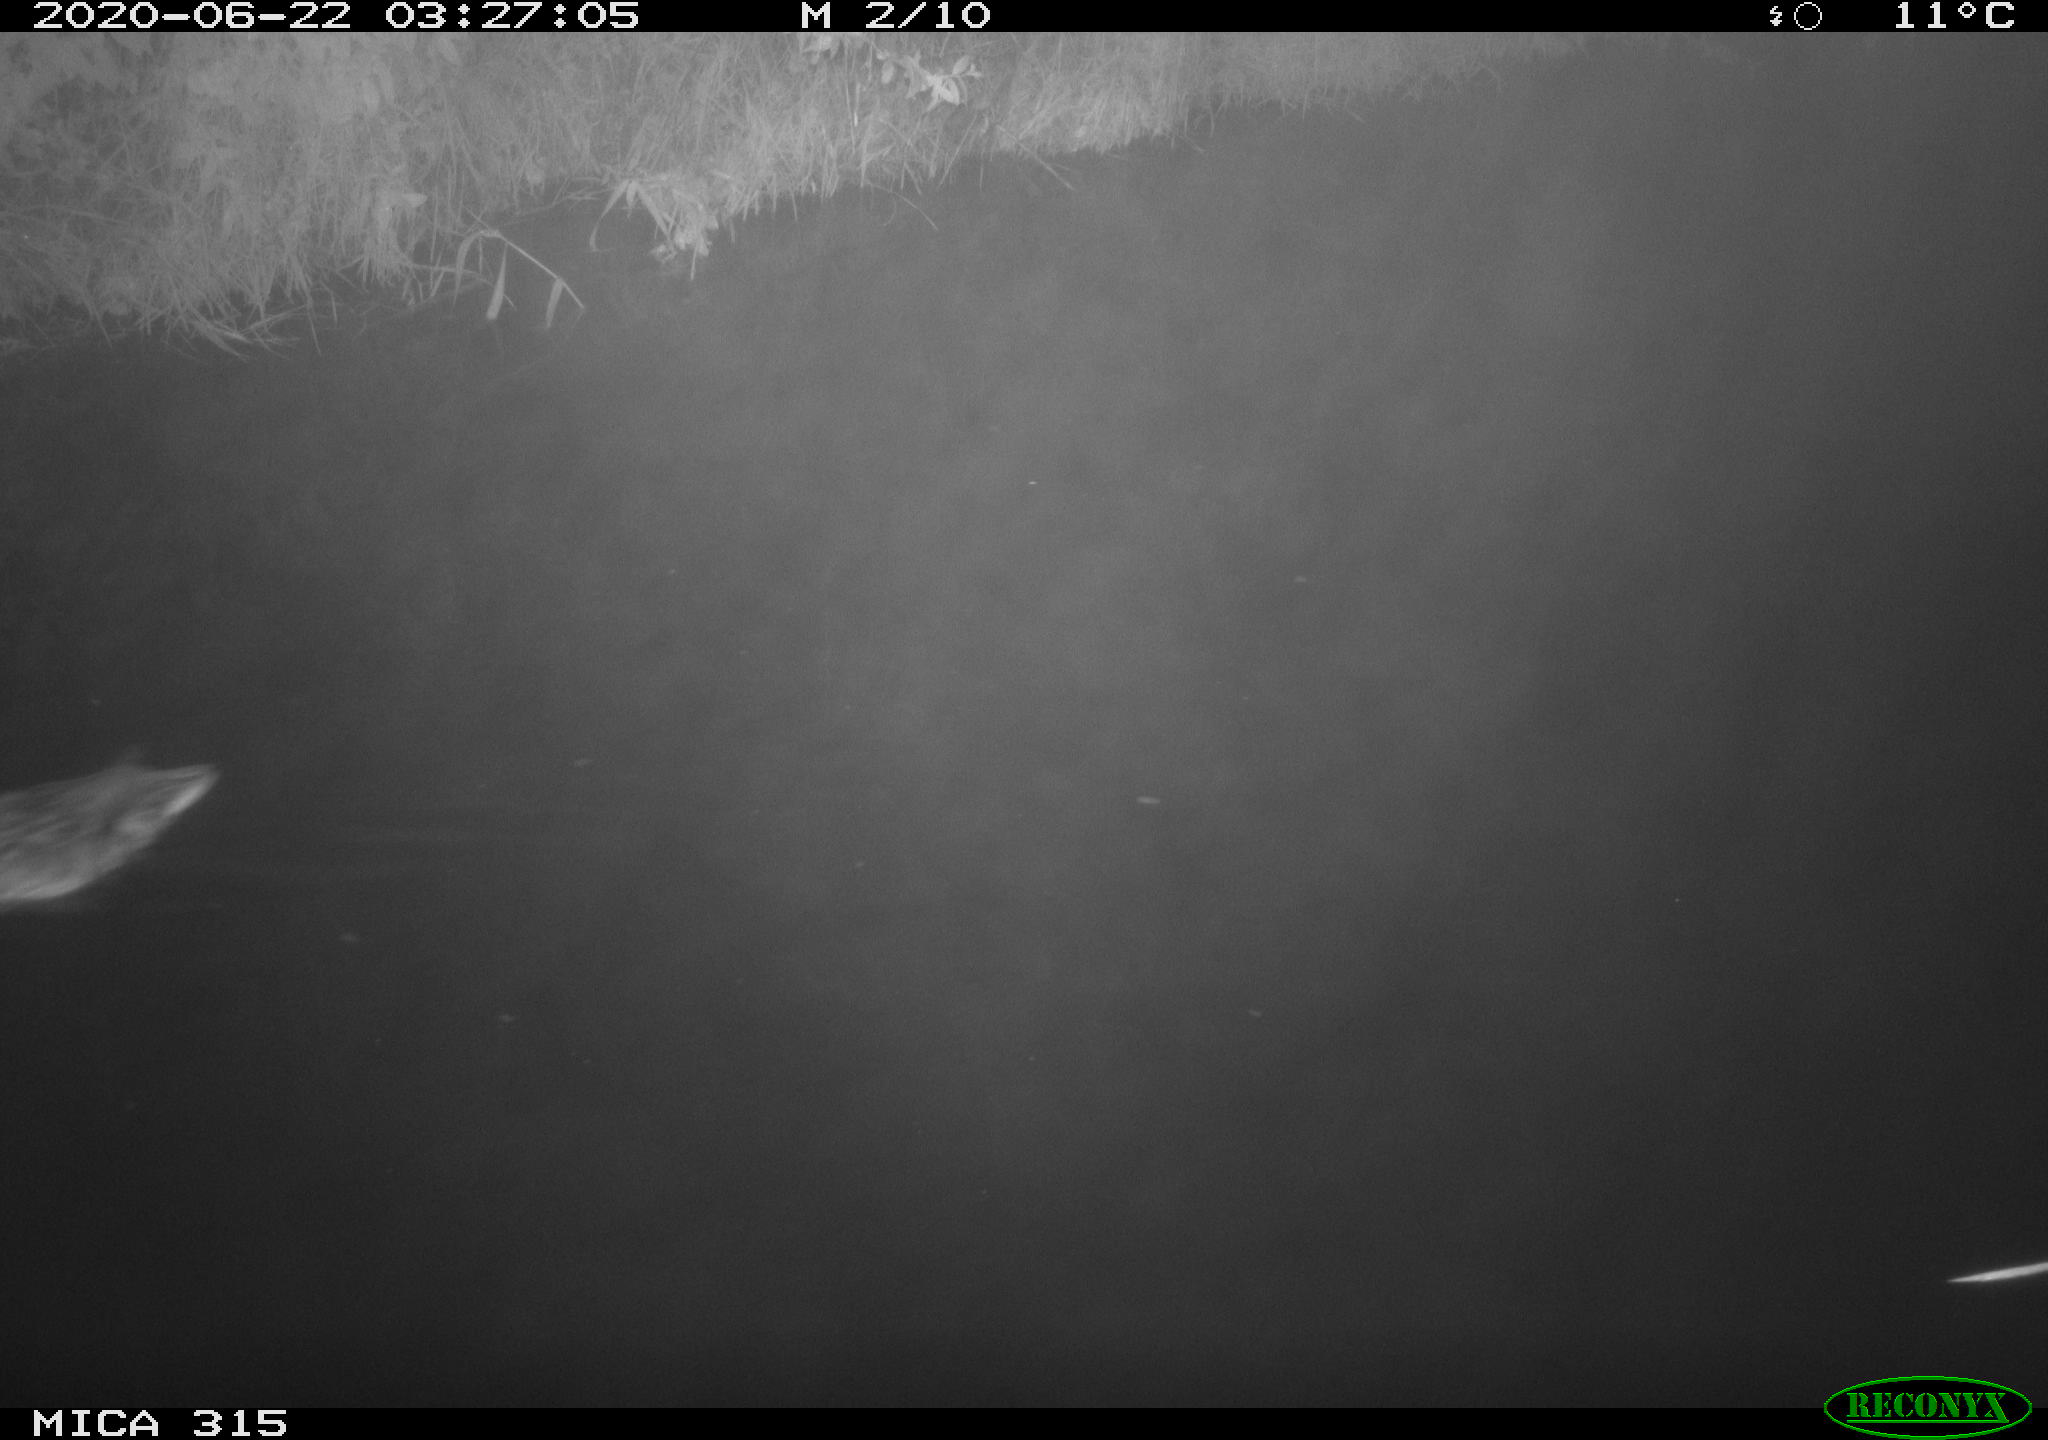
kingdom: Animalia
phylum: Chordata
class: Aves
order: Anseriformes
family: Anatidae
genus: Anas
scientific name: Anas platyrhynchos
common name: Mallard
